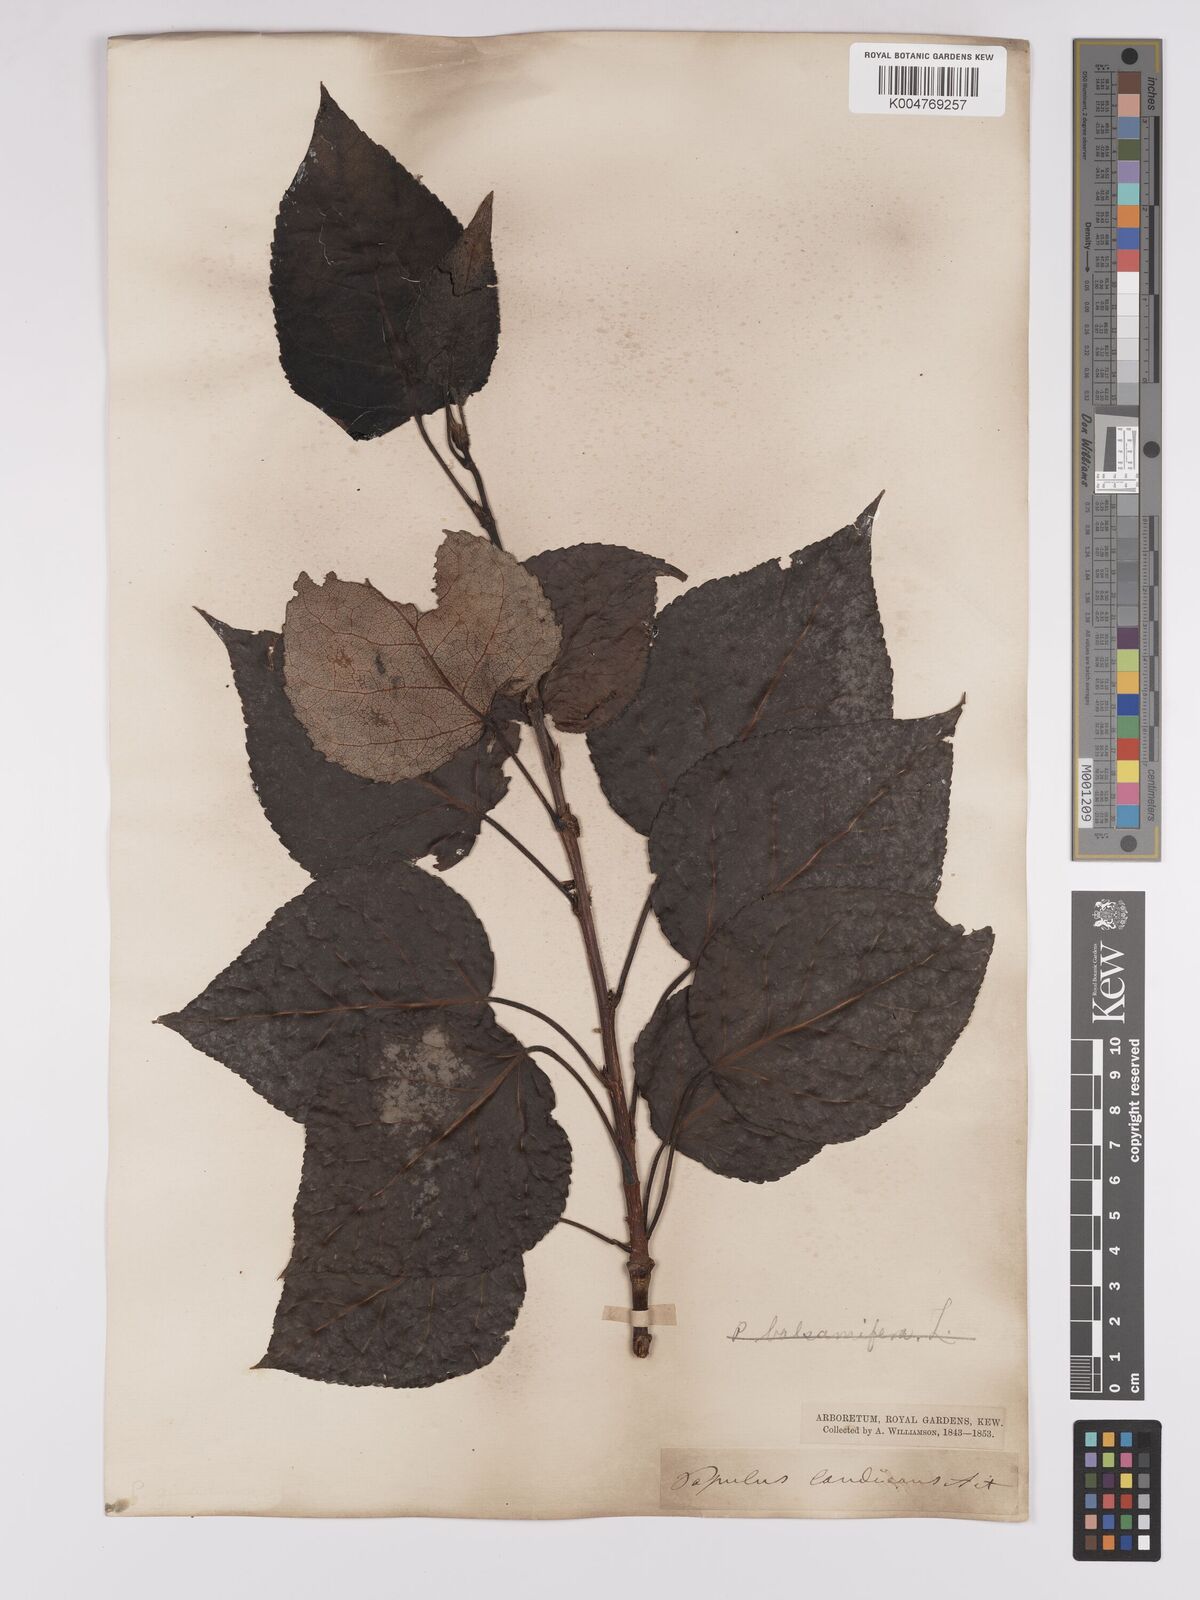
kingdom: Plantae
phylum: Tracheophyta
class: Magnoliopsida
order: Malpighiales
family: Salicaceae
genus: Populus
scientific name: Populus jackii
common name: Balm-of-gilead
